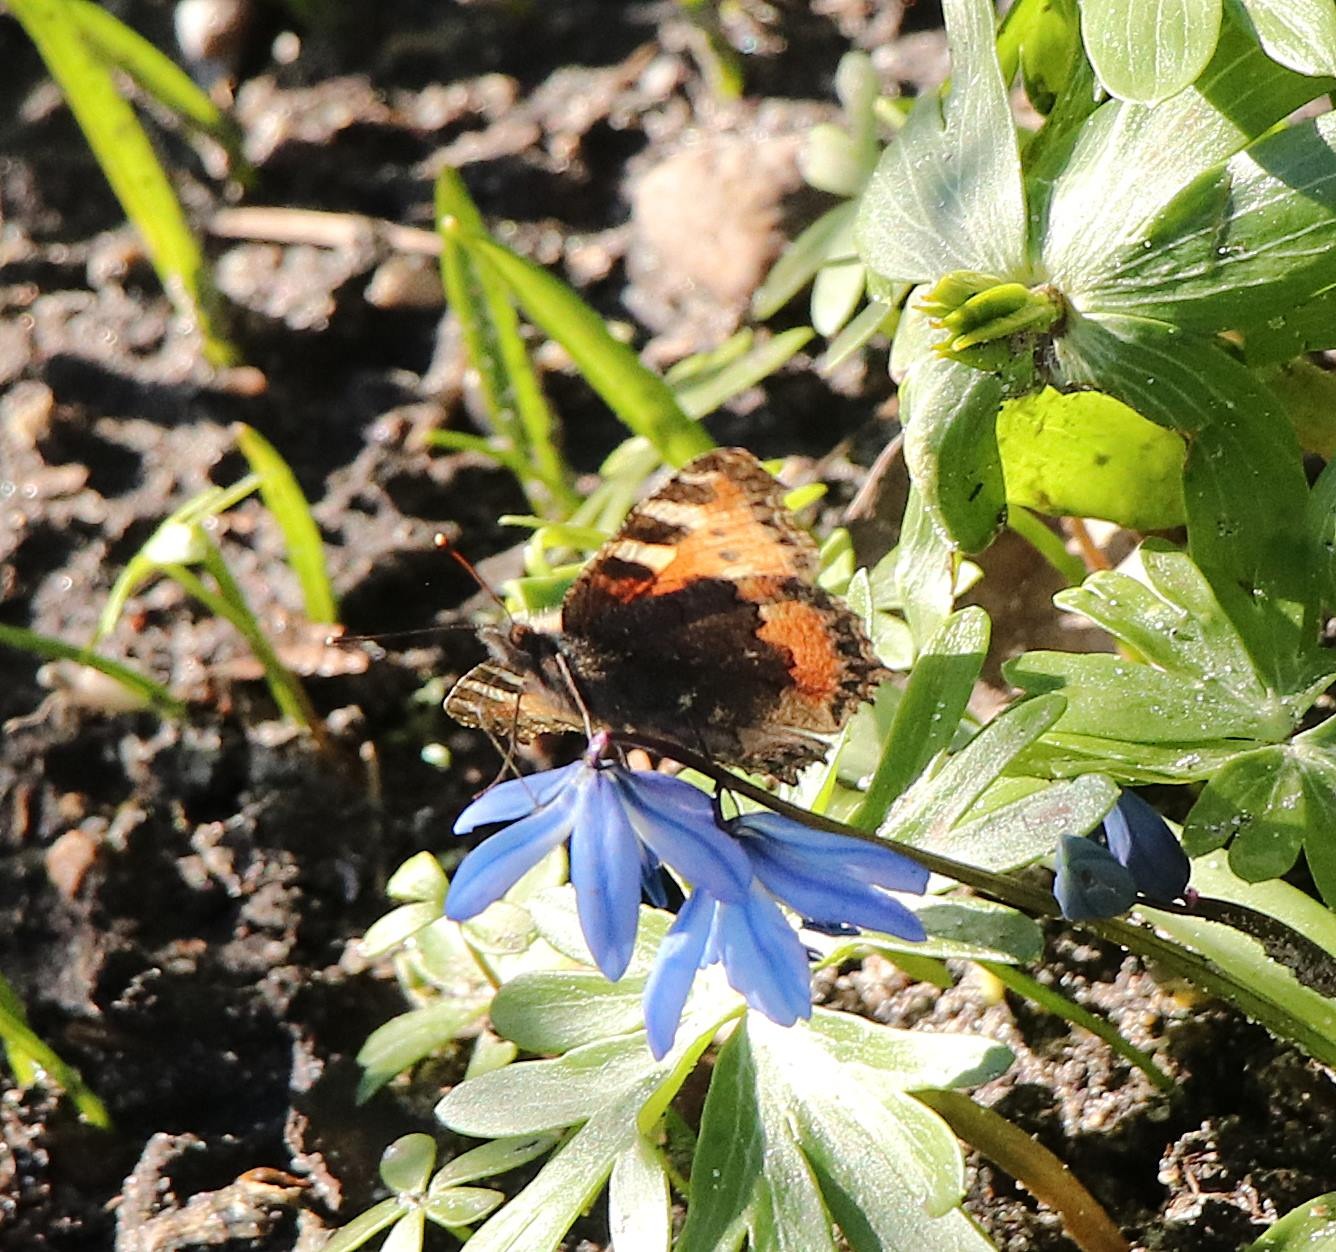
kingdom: Animalia
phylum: Arthropoda
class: Insecta
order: Lepidoptera
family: Nymphalidae
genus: Aglais
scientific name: Aglais urticae
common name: Nældens takvinge
